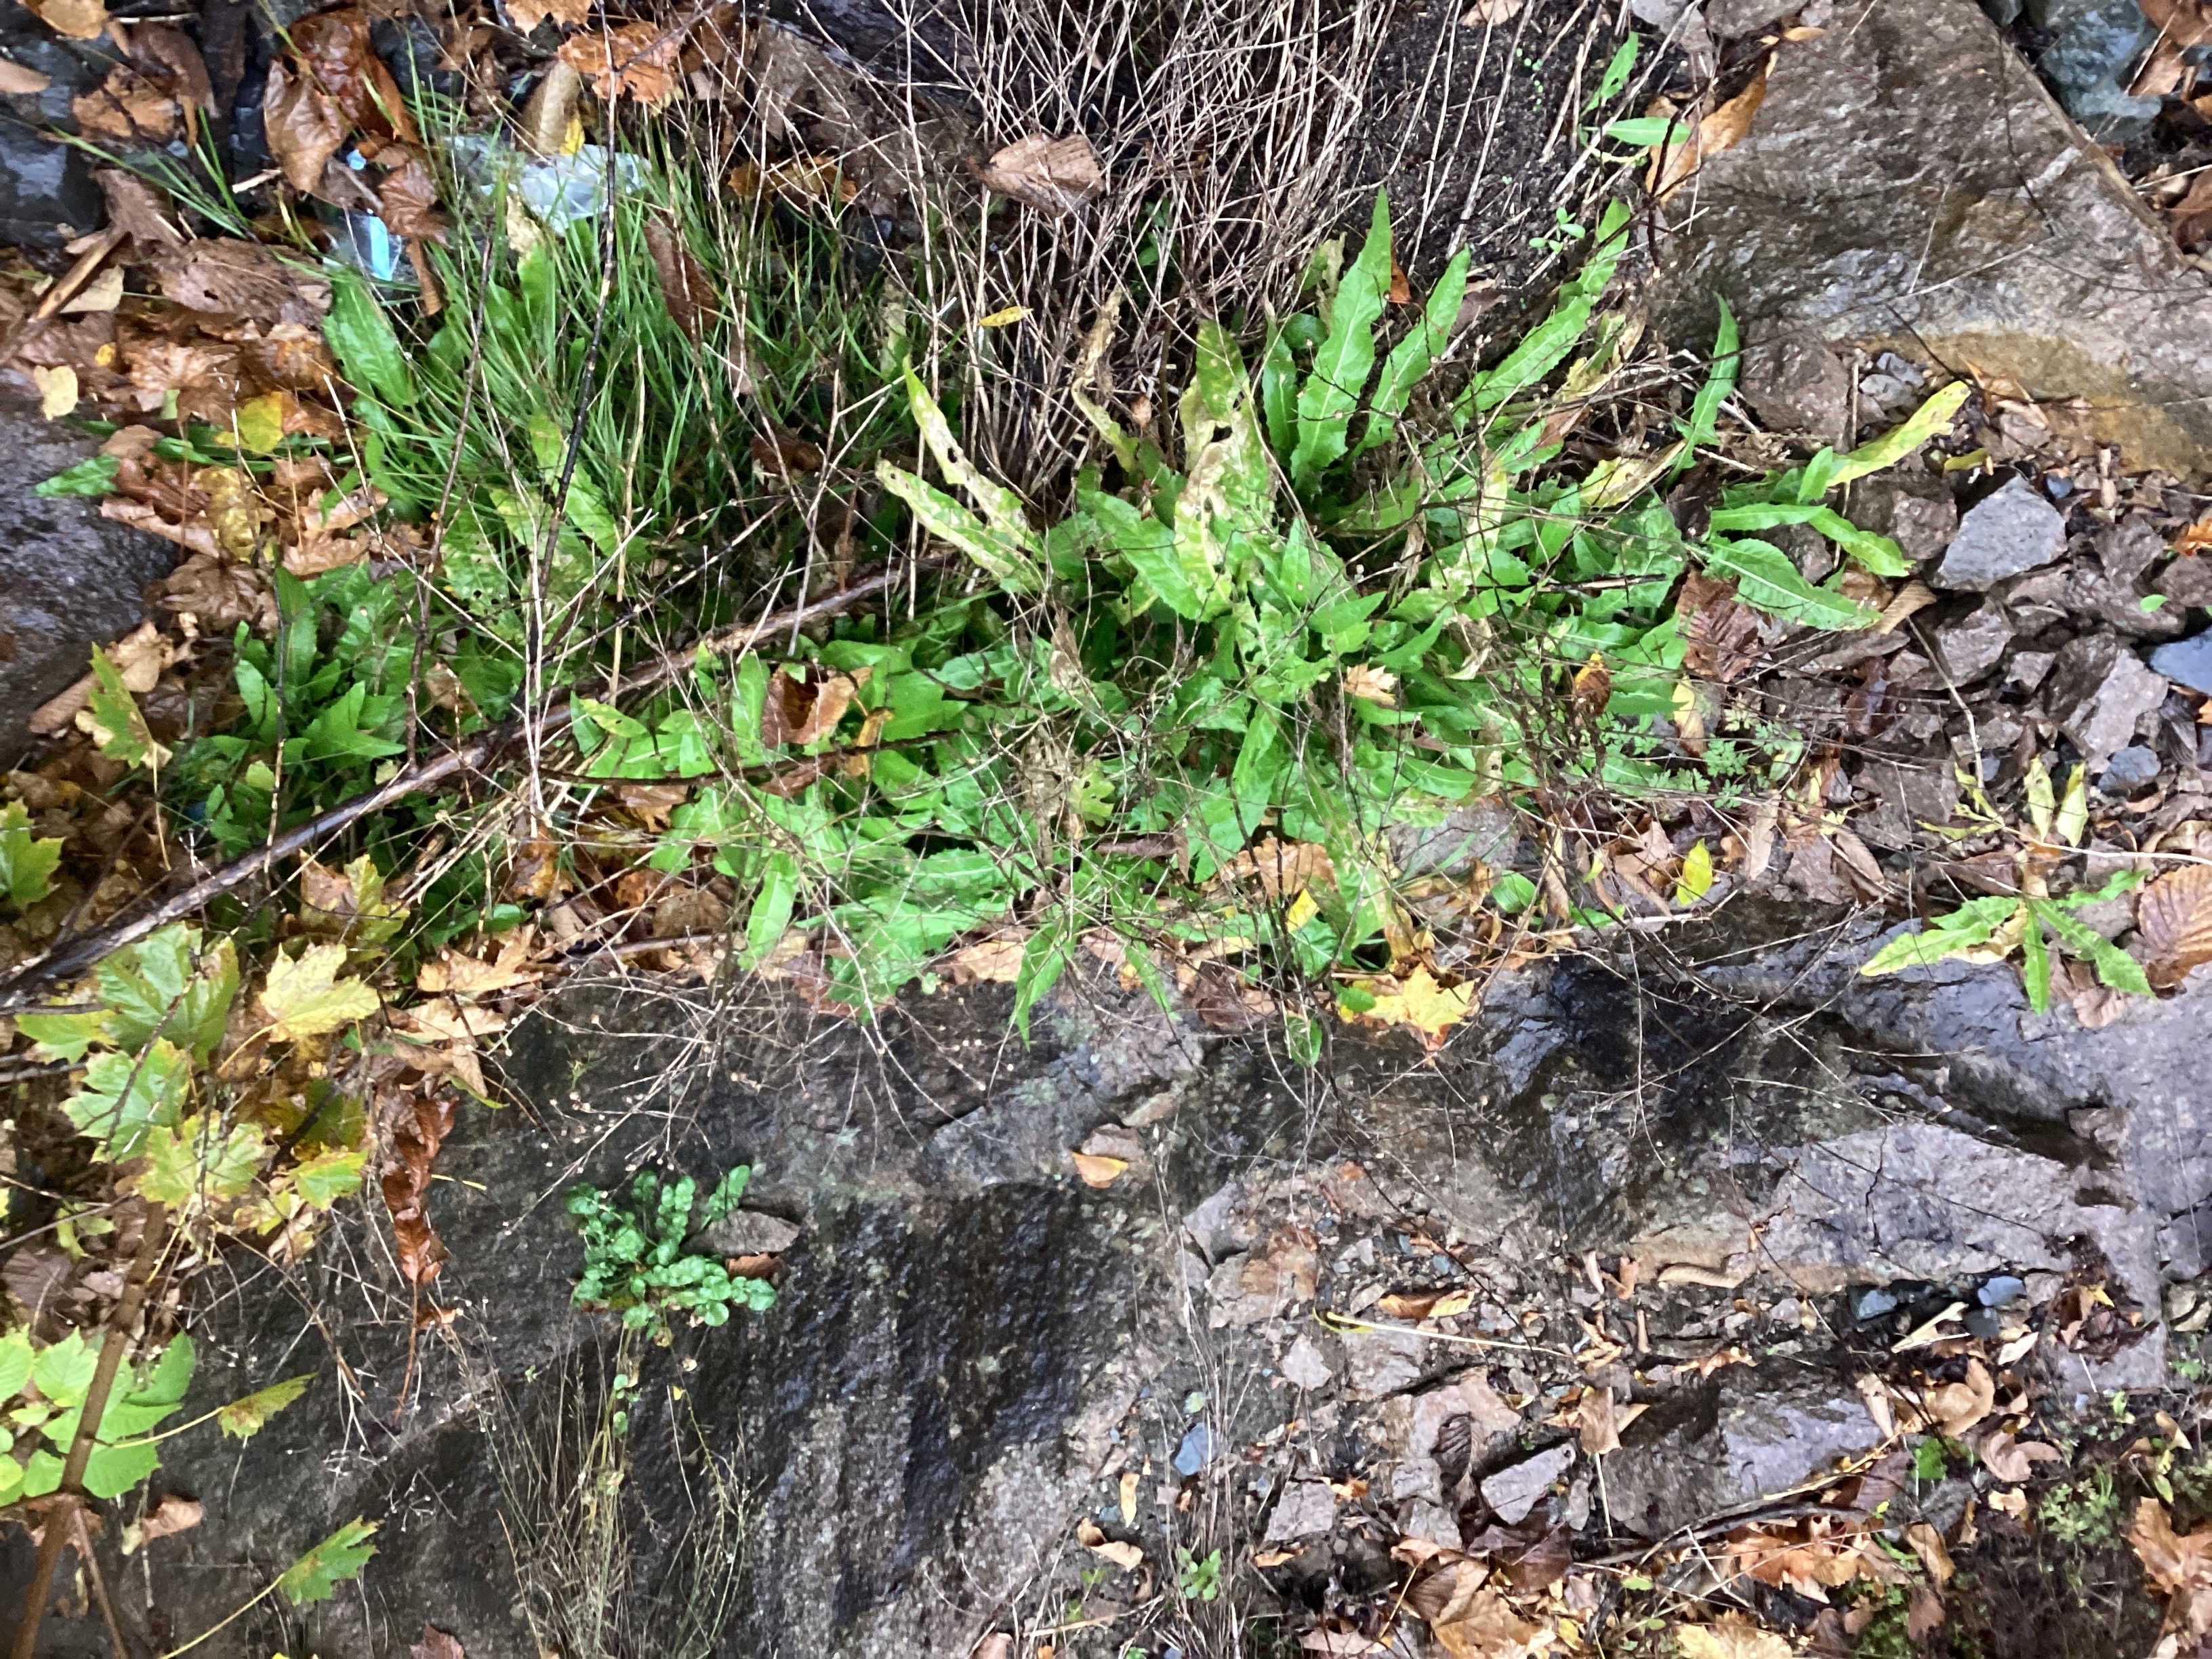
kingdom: Plantae
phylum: Tracheophyta
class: Magnoliopsida
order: Brassicales
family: Brassicaceae
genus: Bunias
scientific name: Bunias orientalis
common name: russekål
